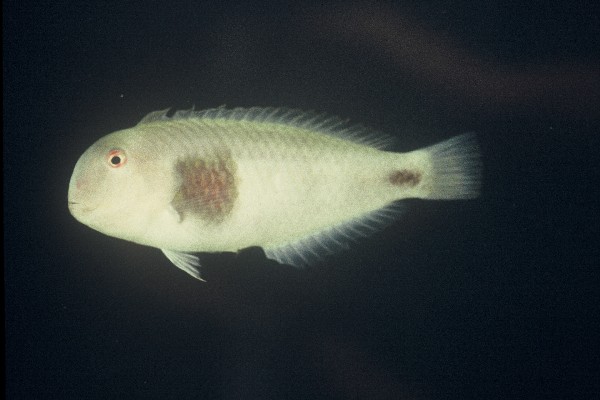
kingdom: Animalia
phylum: Chordata
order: Perciformes
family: Labridae
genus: Iniistius
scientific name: Iniistius pavo
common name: Peacock wrasse
